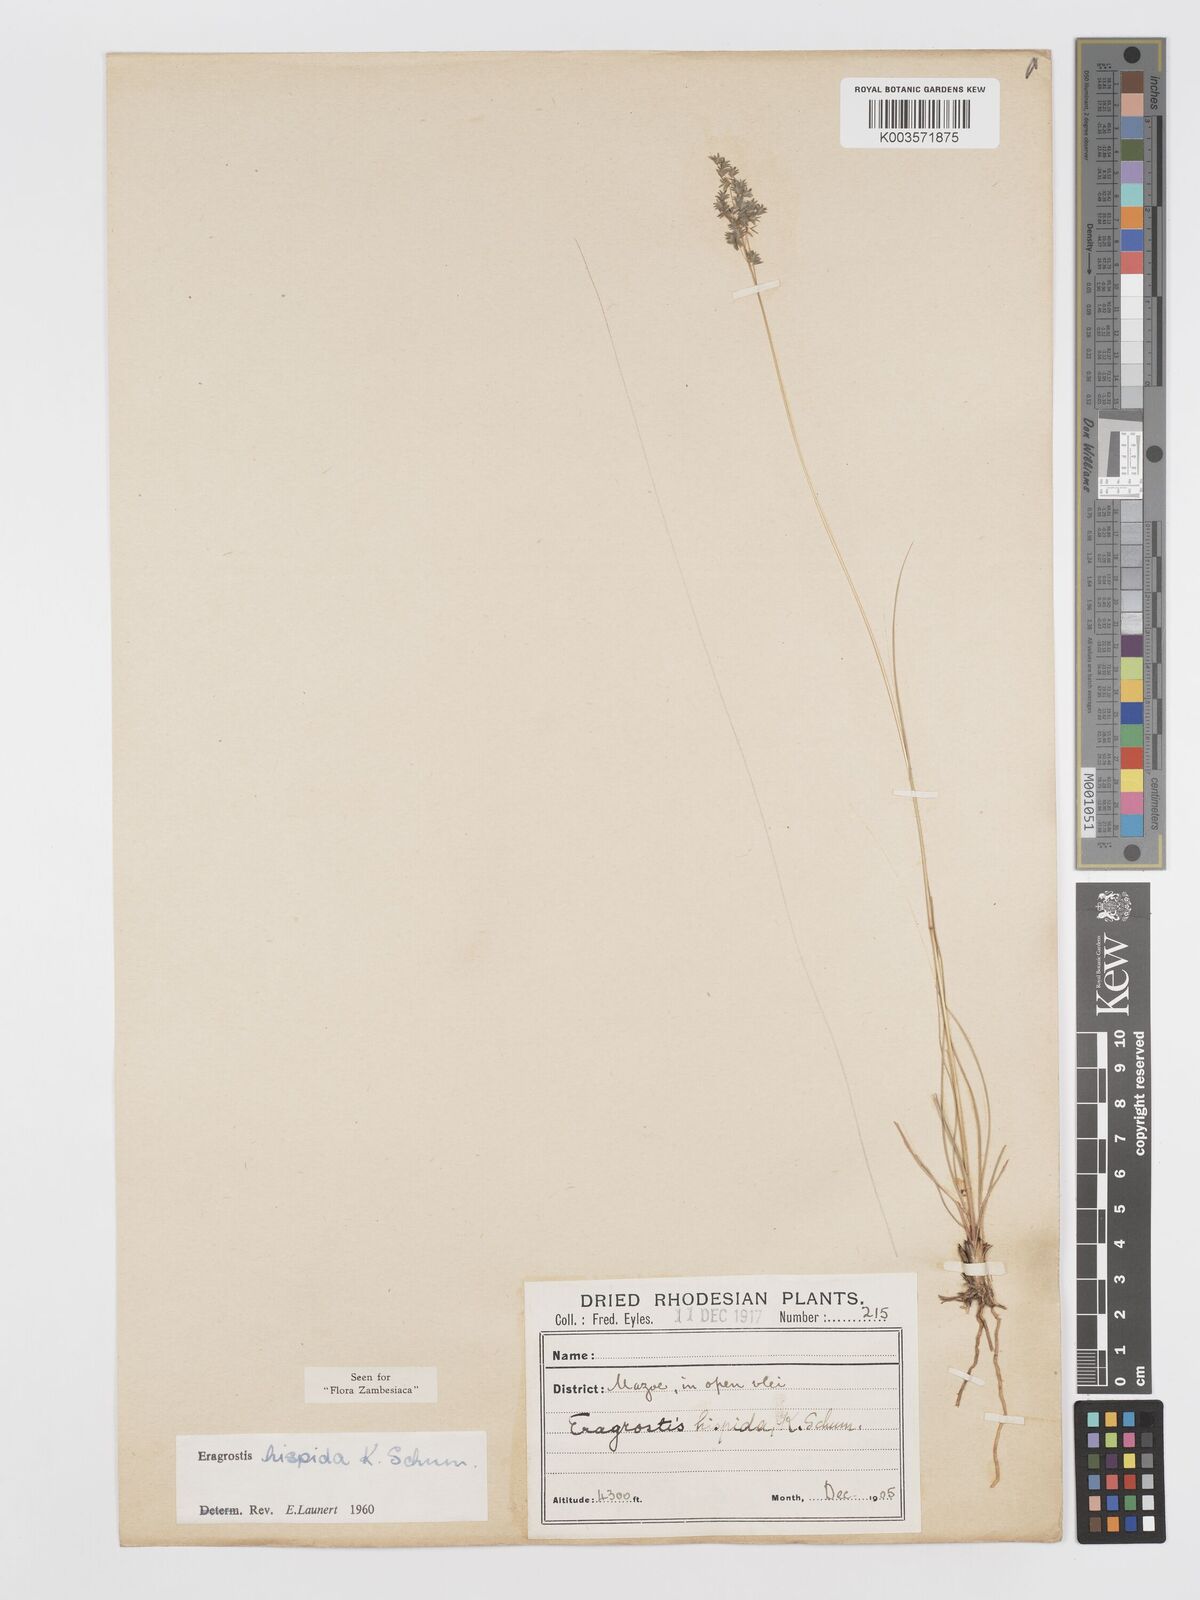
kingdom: Plantae
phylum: Tracheophyta
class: Liliopsida
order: Poales
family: Poaceae
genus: Eragrostis
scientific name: Eragrostis hispida
